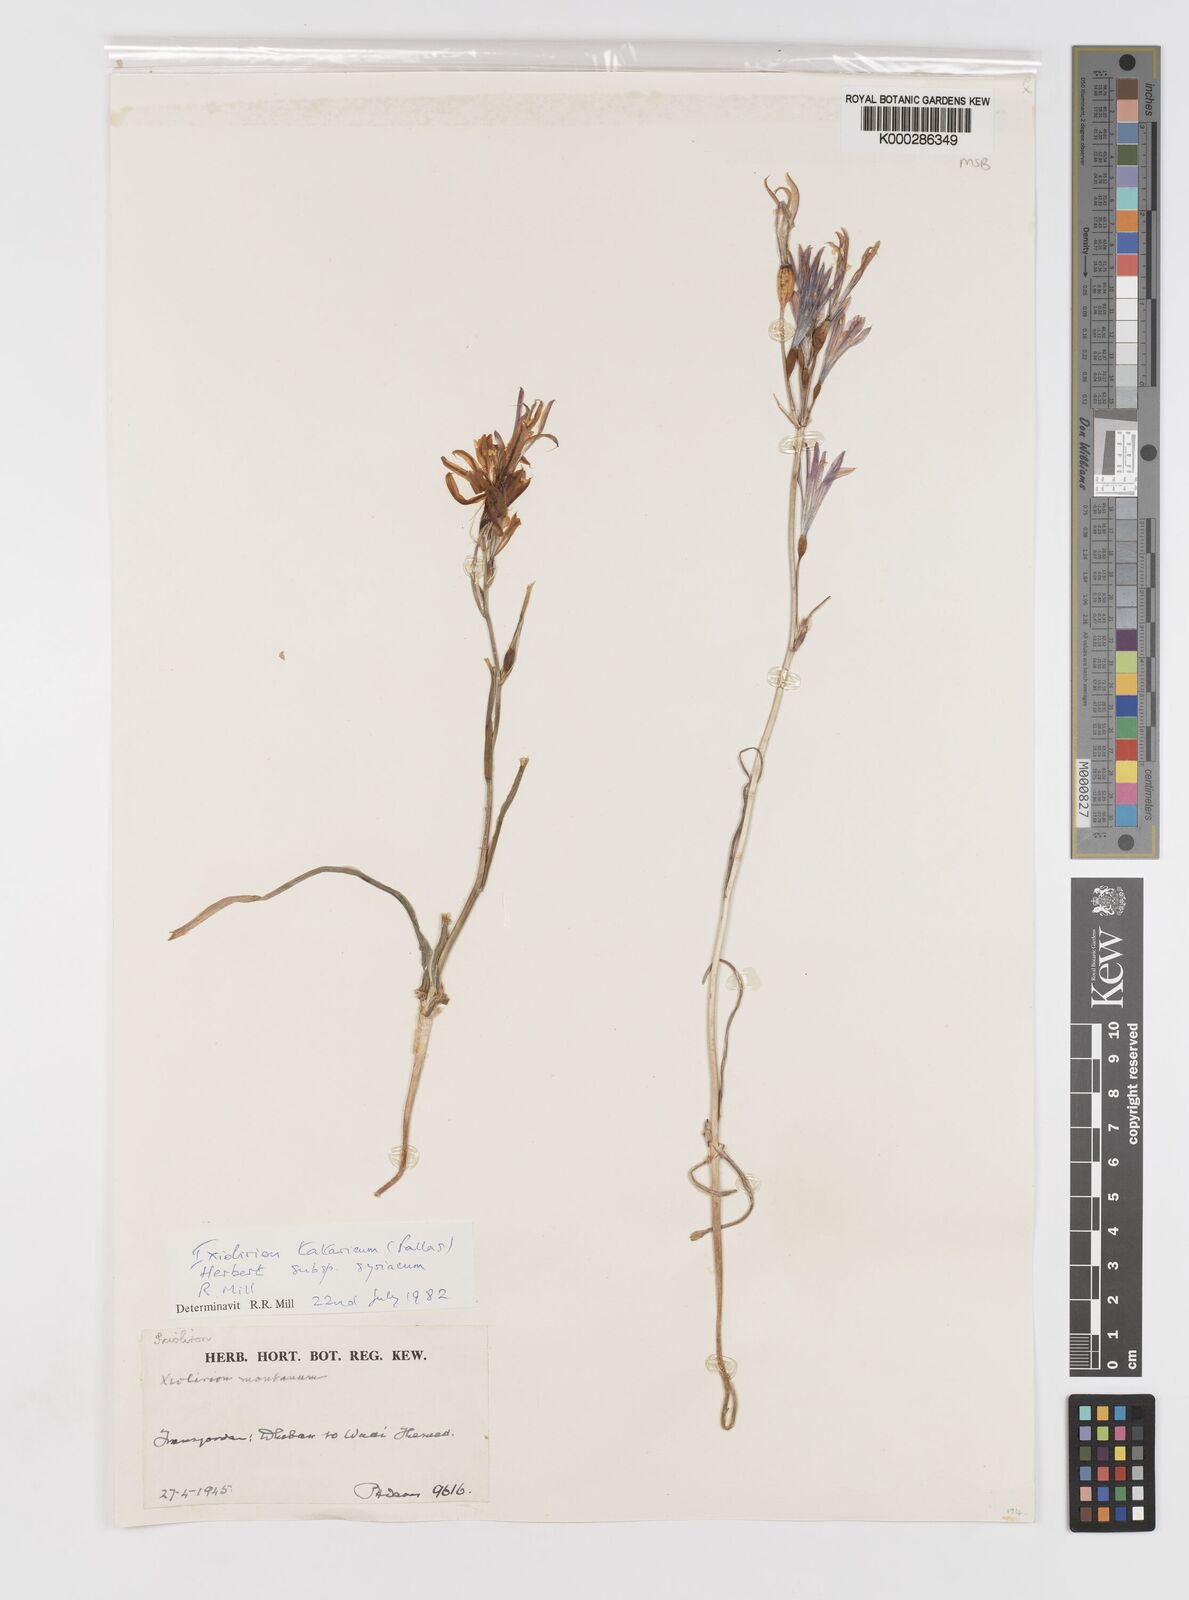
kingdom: Plantae
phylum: Tracheophyta
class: Liliopsida
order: Asparagales
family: Ixioliriaceae
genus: Ixiolirion
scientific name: Ixiolirion tataricum
